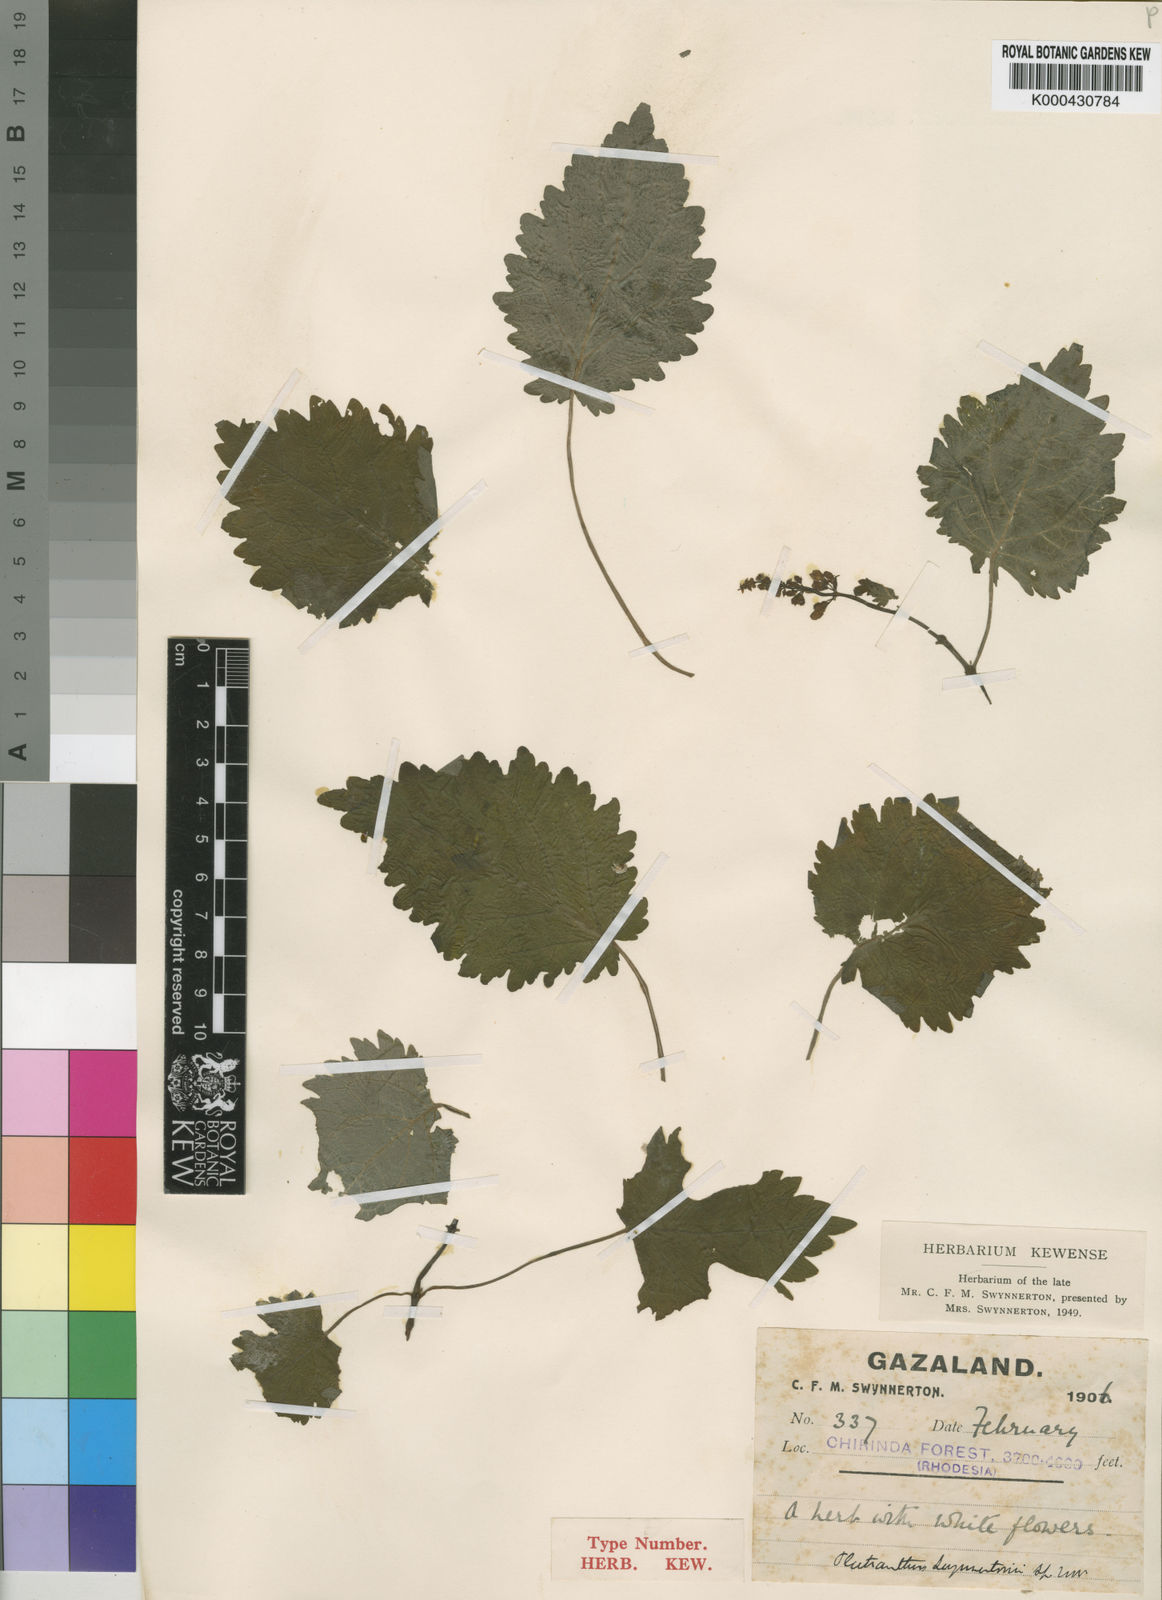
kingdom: Plantae
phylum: Tracheophyta
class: Magnoliopsida
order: Lamiales
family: Lamiaceae
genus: Plectranthus
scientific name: Plectranthus swynnertonii
